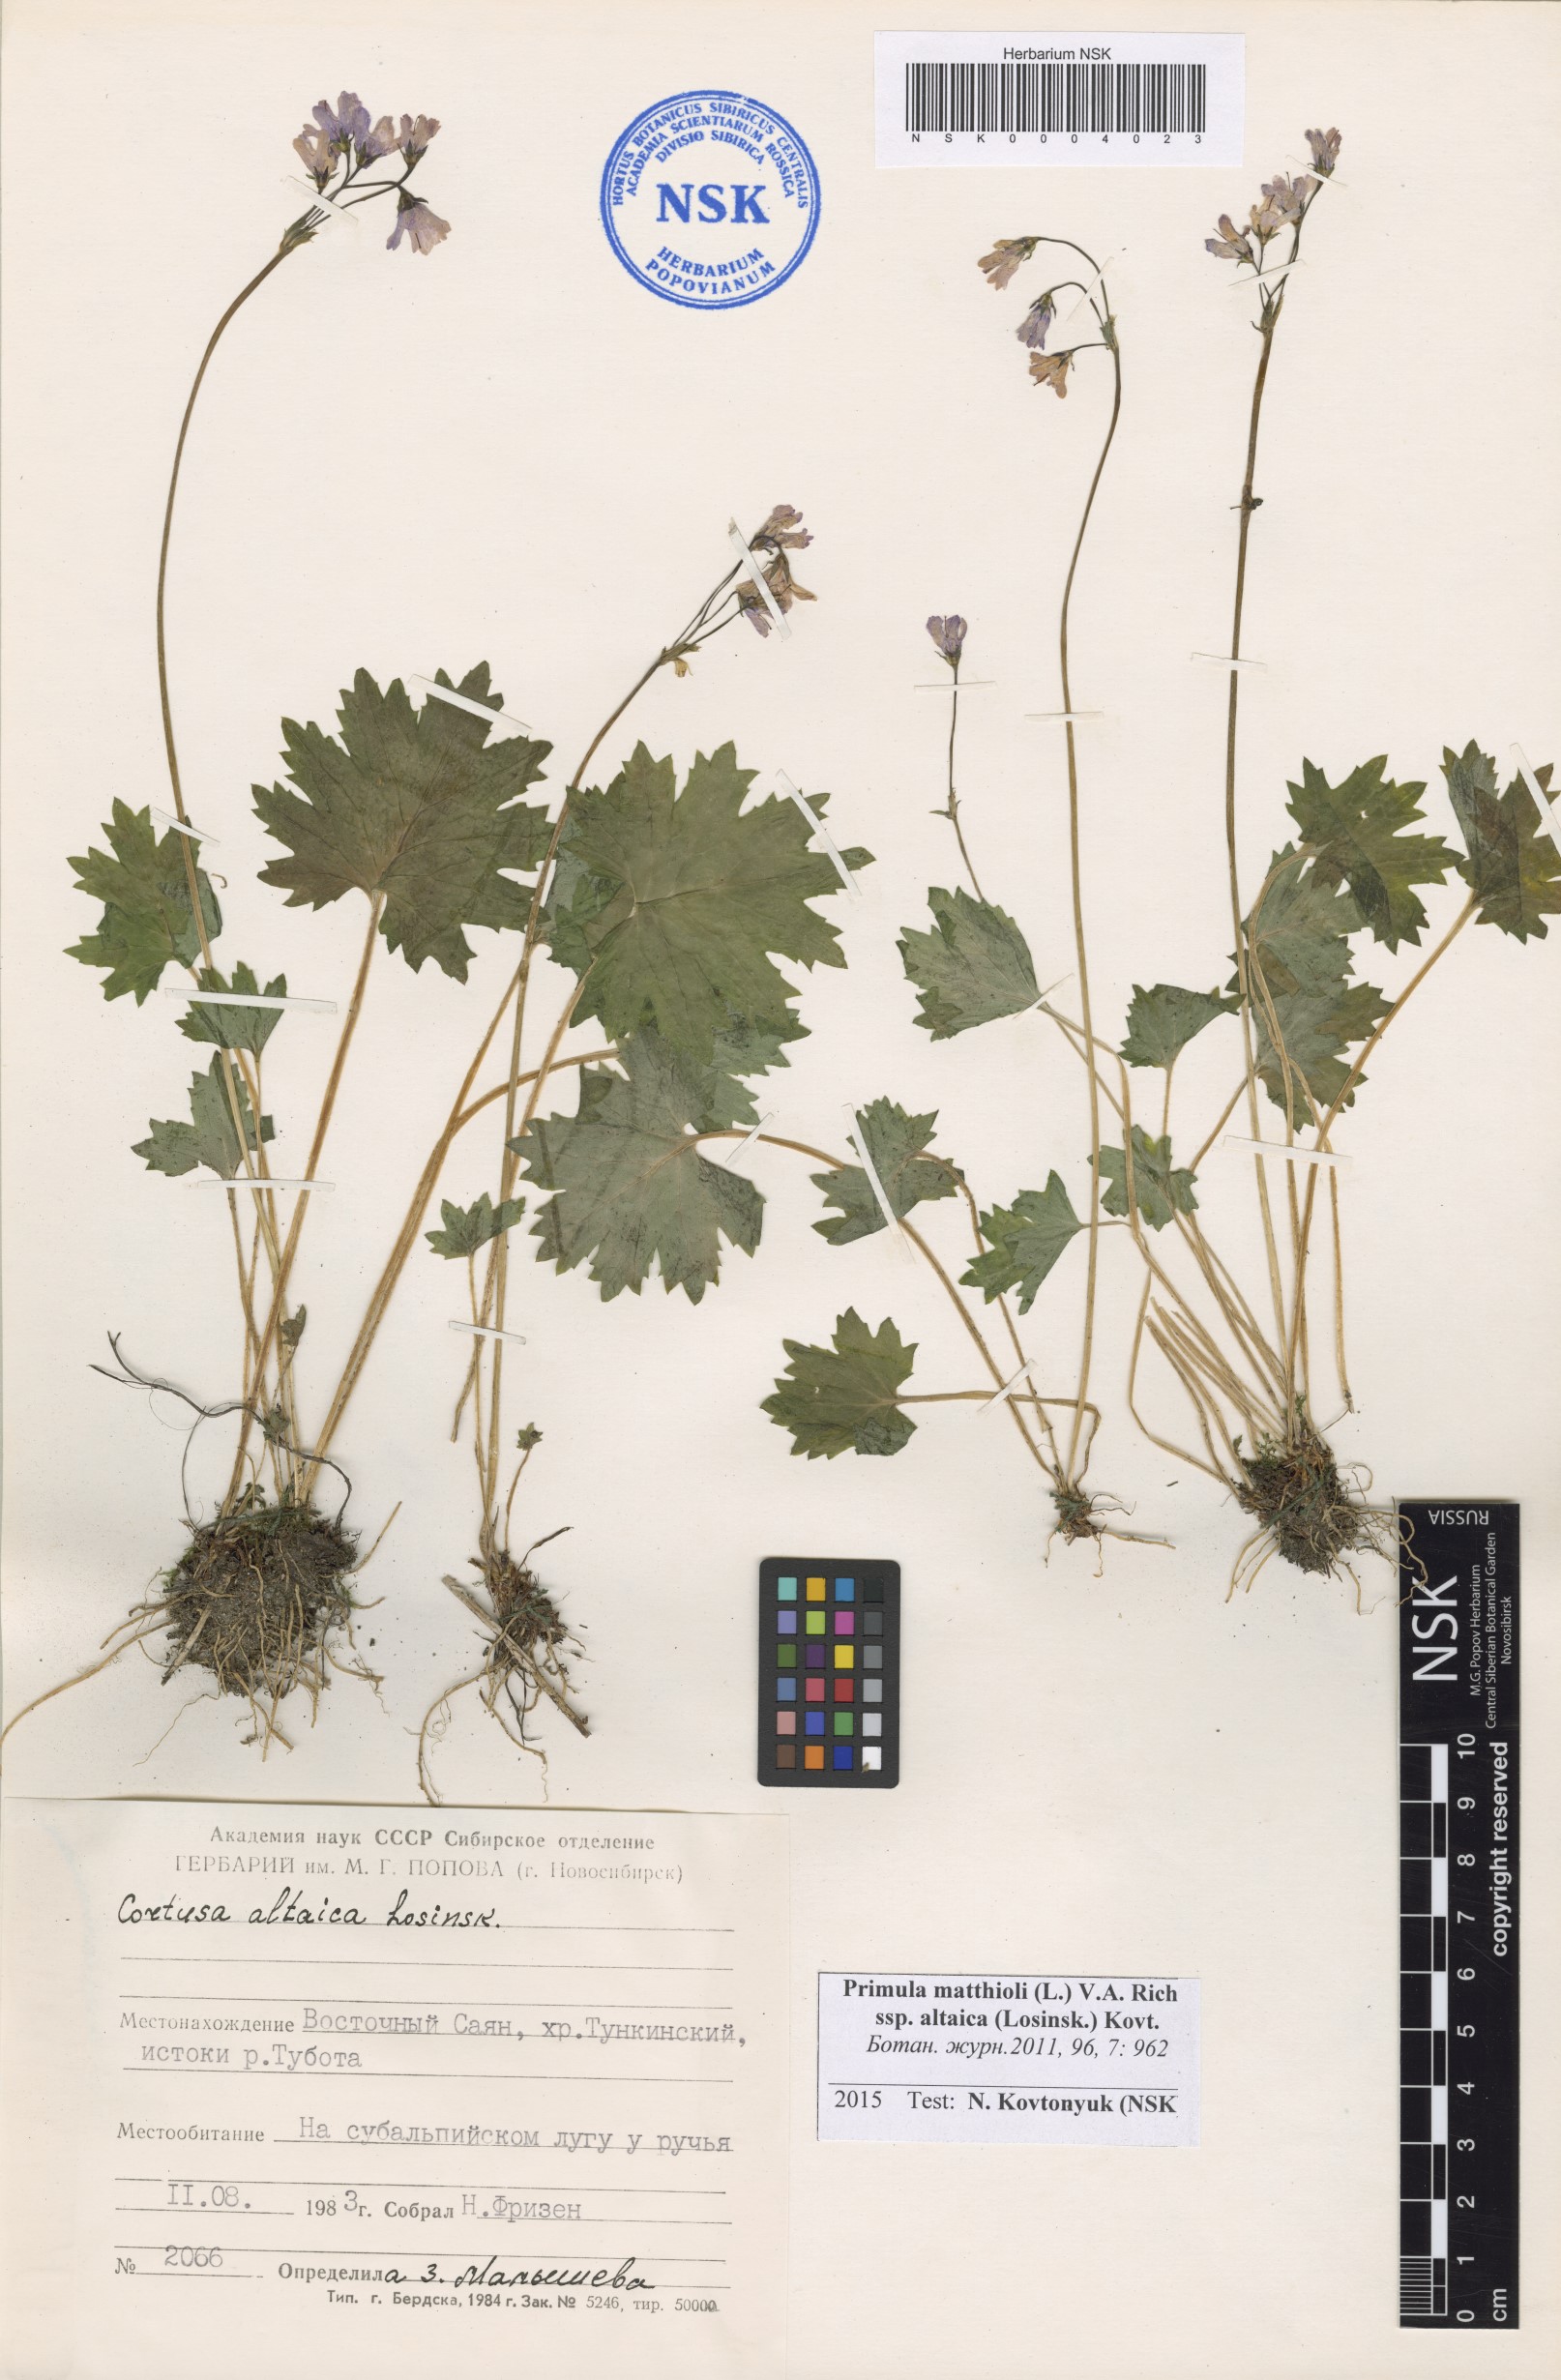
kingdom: Plantae
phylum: Tracheophyta
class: Magnoliopsida
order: Ericales
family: Primulaceae
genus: Primula
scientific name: Primula matthioli
